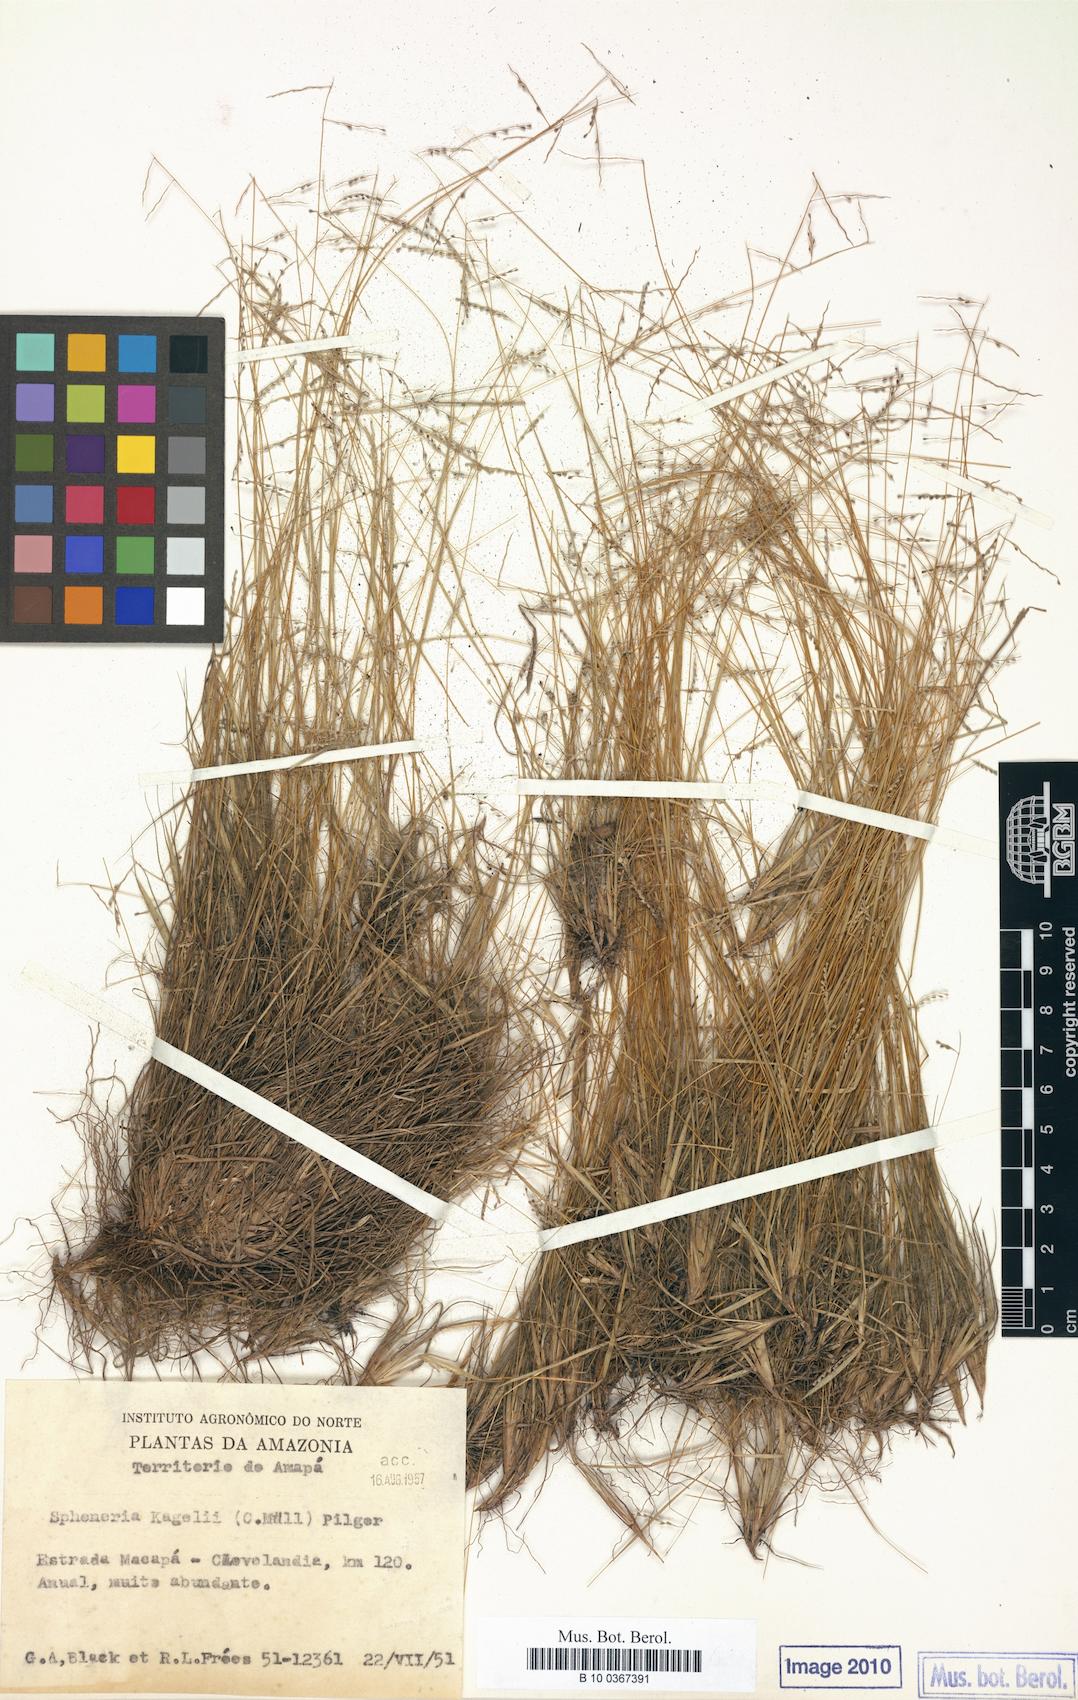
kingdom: Plantae
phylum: Tracheophyta
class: Liliopsida
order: Poales
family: Poaceae
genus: Spheneria
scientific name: Spheneria kegelii
